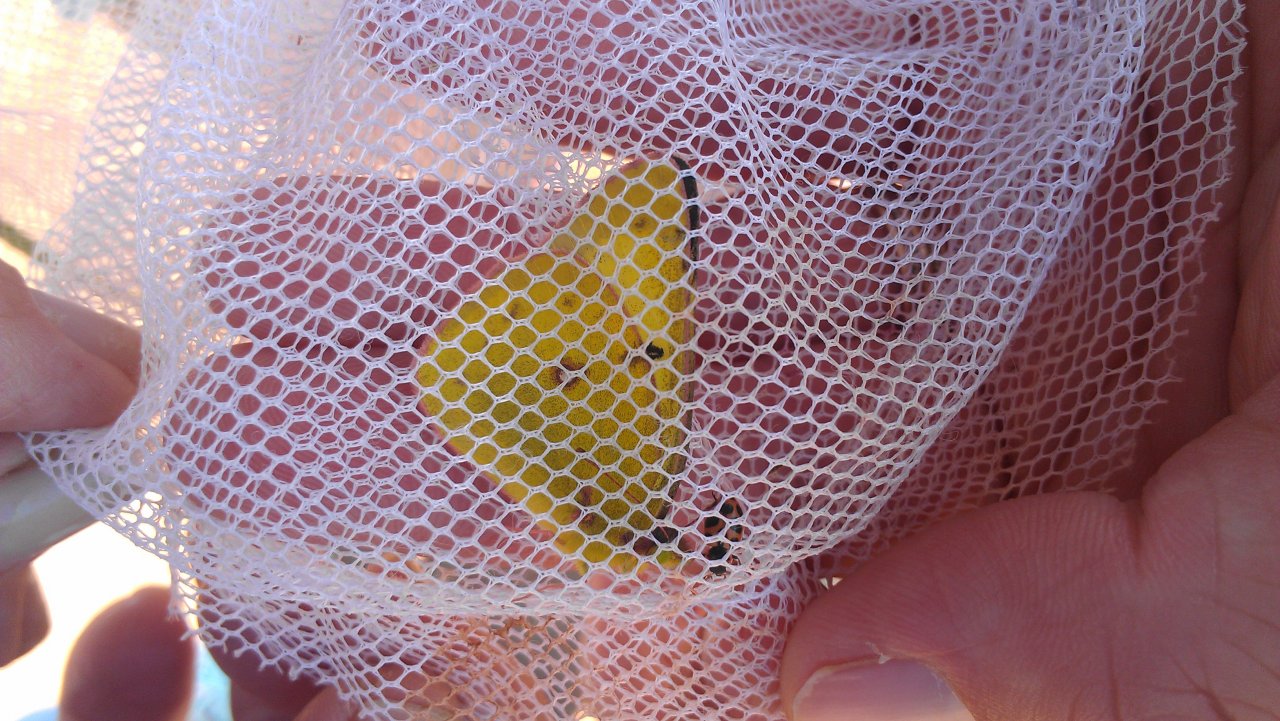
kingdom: Animalia
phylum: Arthropoda
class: Insecta
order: Lepidoptera
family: Pieridae
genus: Colias
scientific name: Colias philodice
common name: Clouded Sulphur
